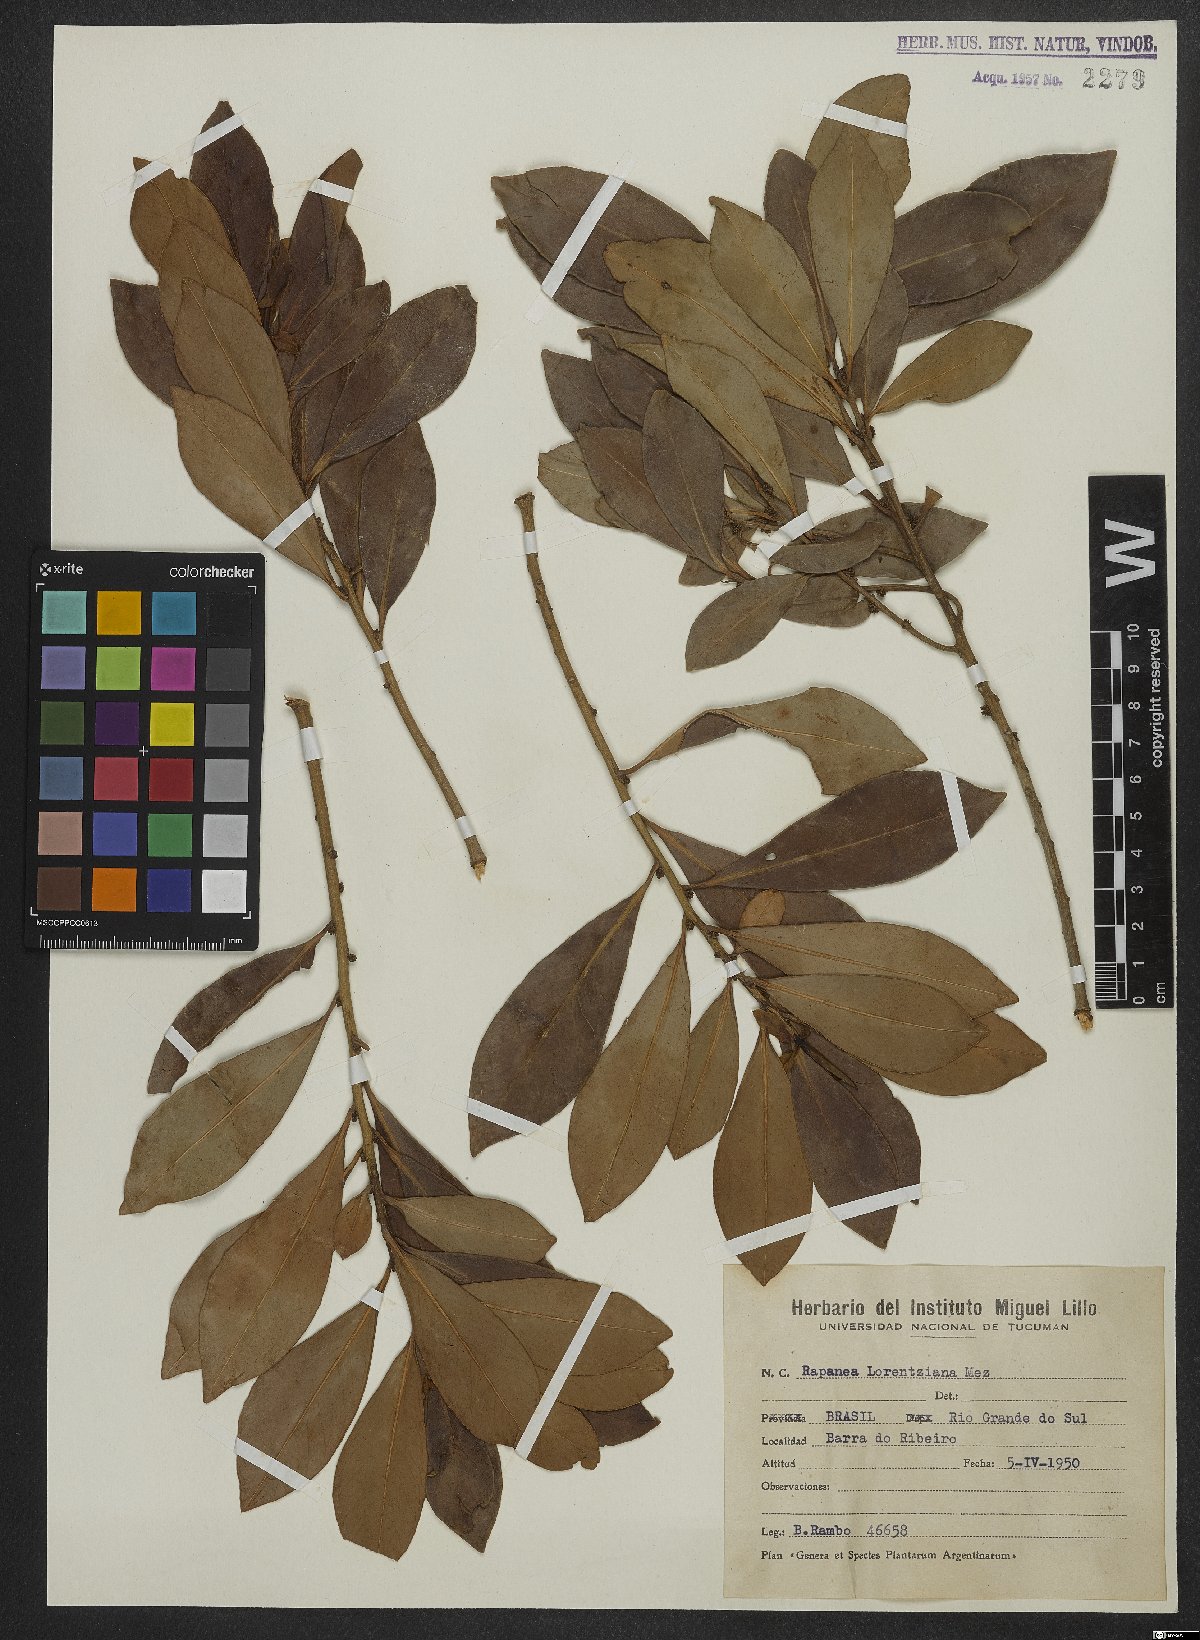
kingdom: Plantae
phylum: Tracheophyta
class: Magnoliopsida
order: Ericales
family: Primulaceae
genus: Myrsine
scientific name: Myrsine lorentziana
